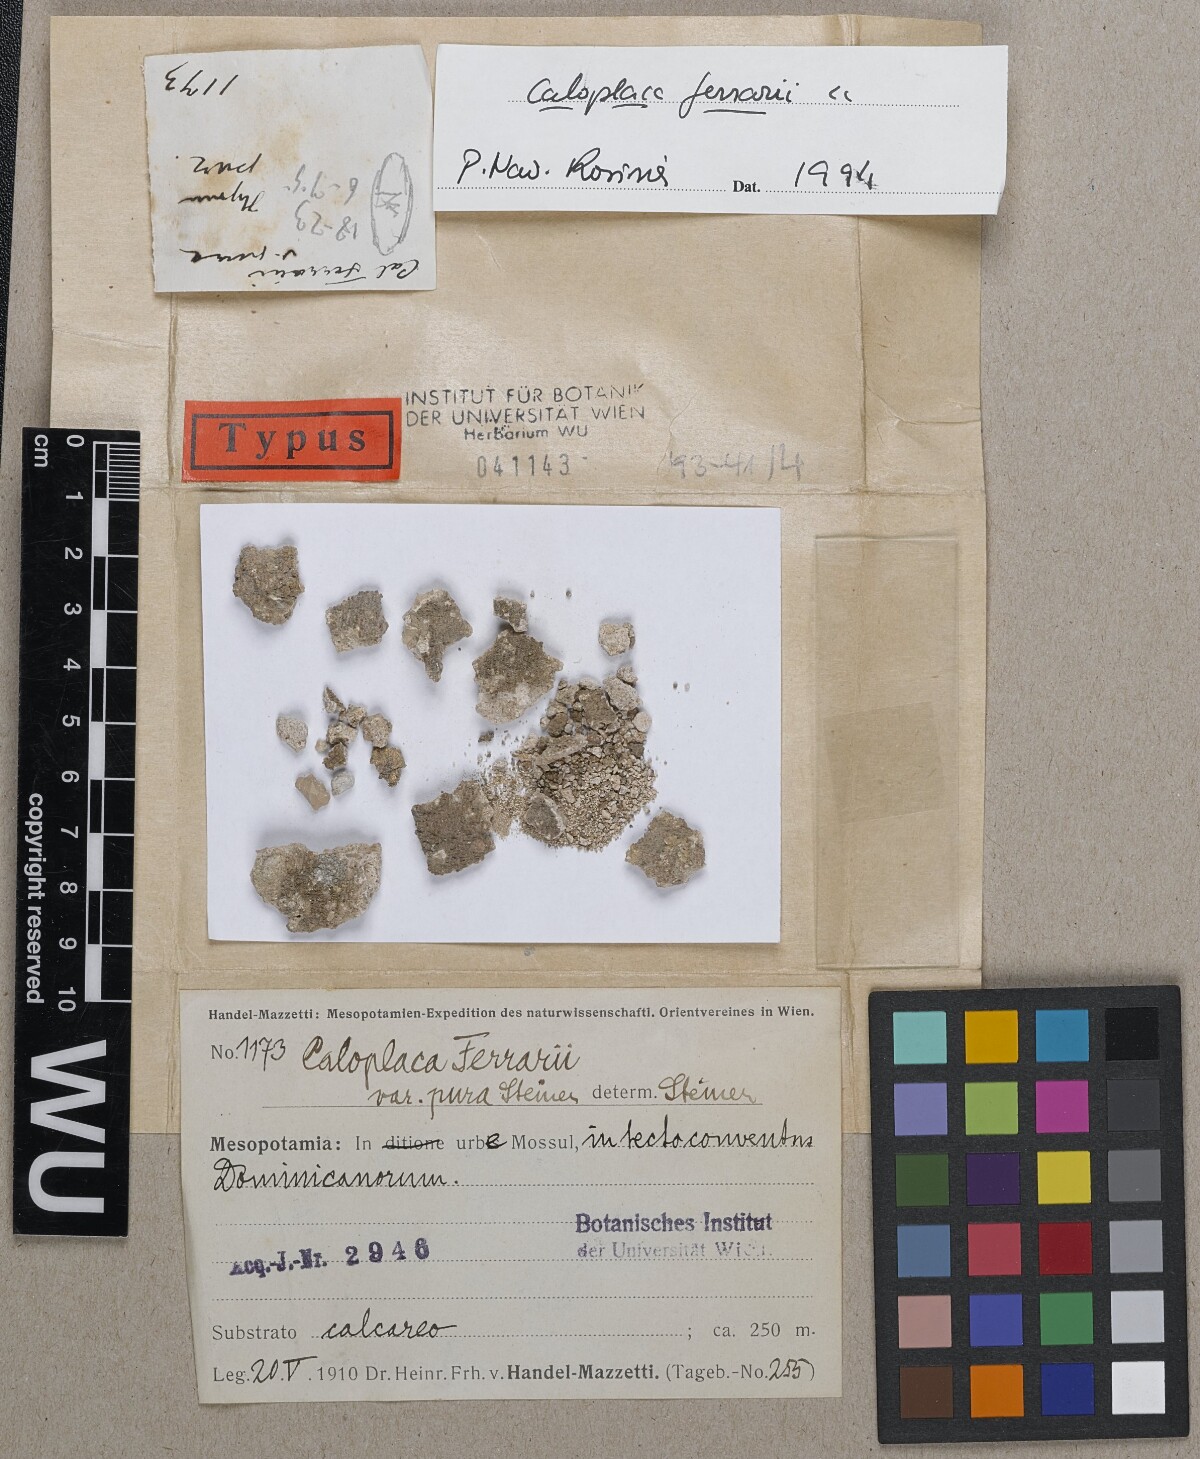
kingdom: Fungi
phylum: Ascomycota
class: Lecanoromycetes
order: Teloschistales
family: Teloschistaceae
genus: Xanthocarpia
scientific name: Xanthocarpia ferrarii
